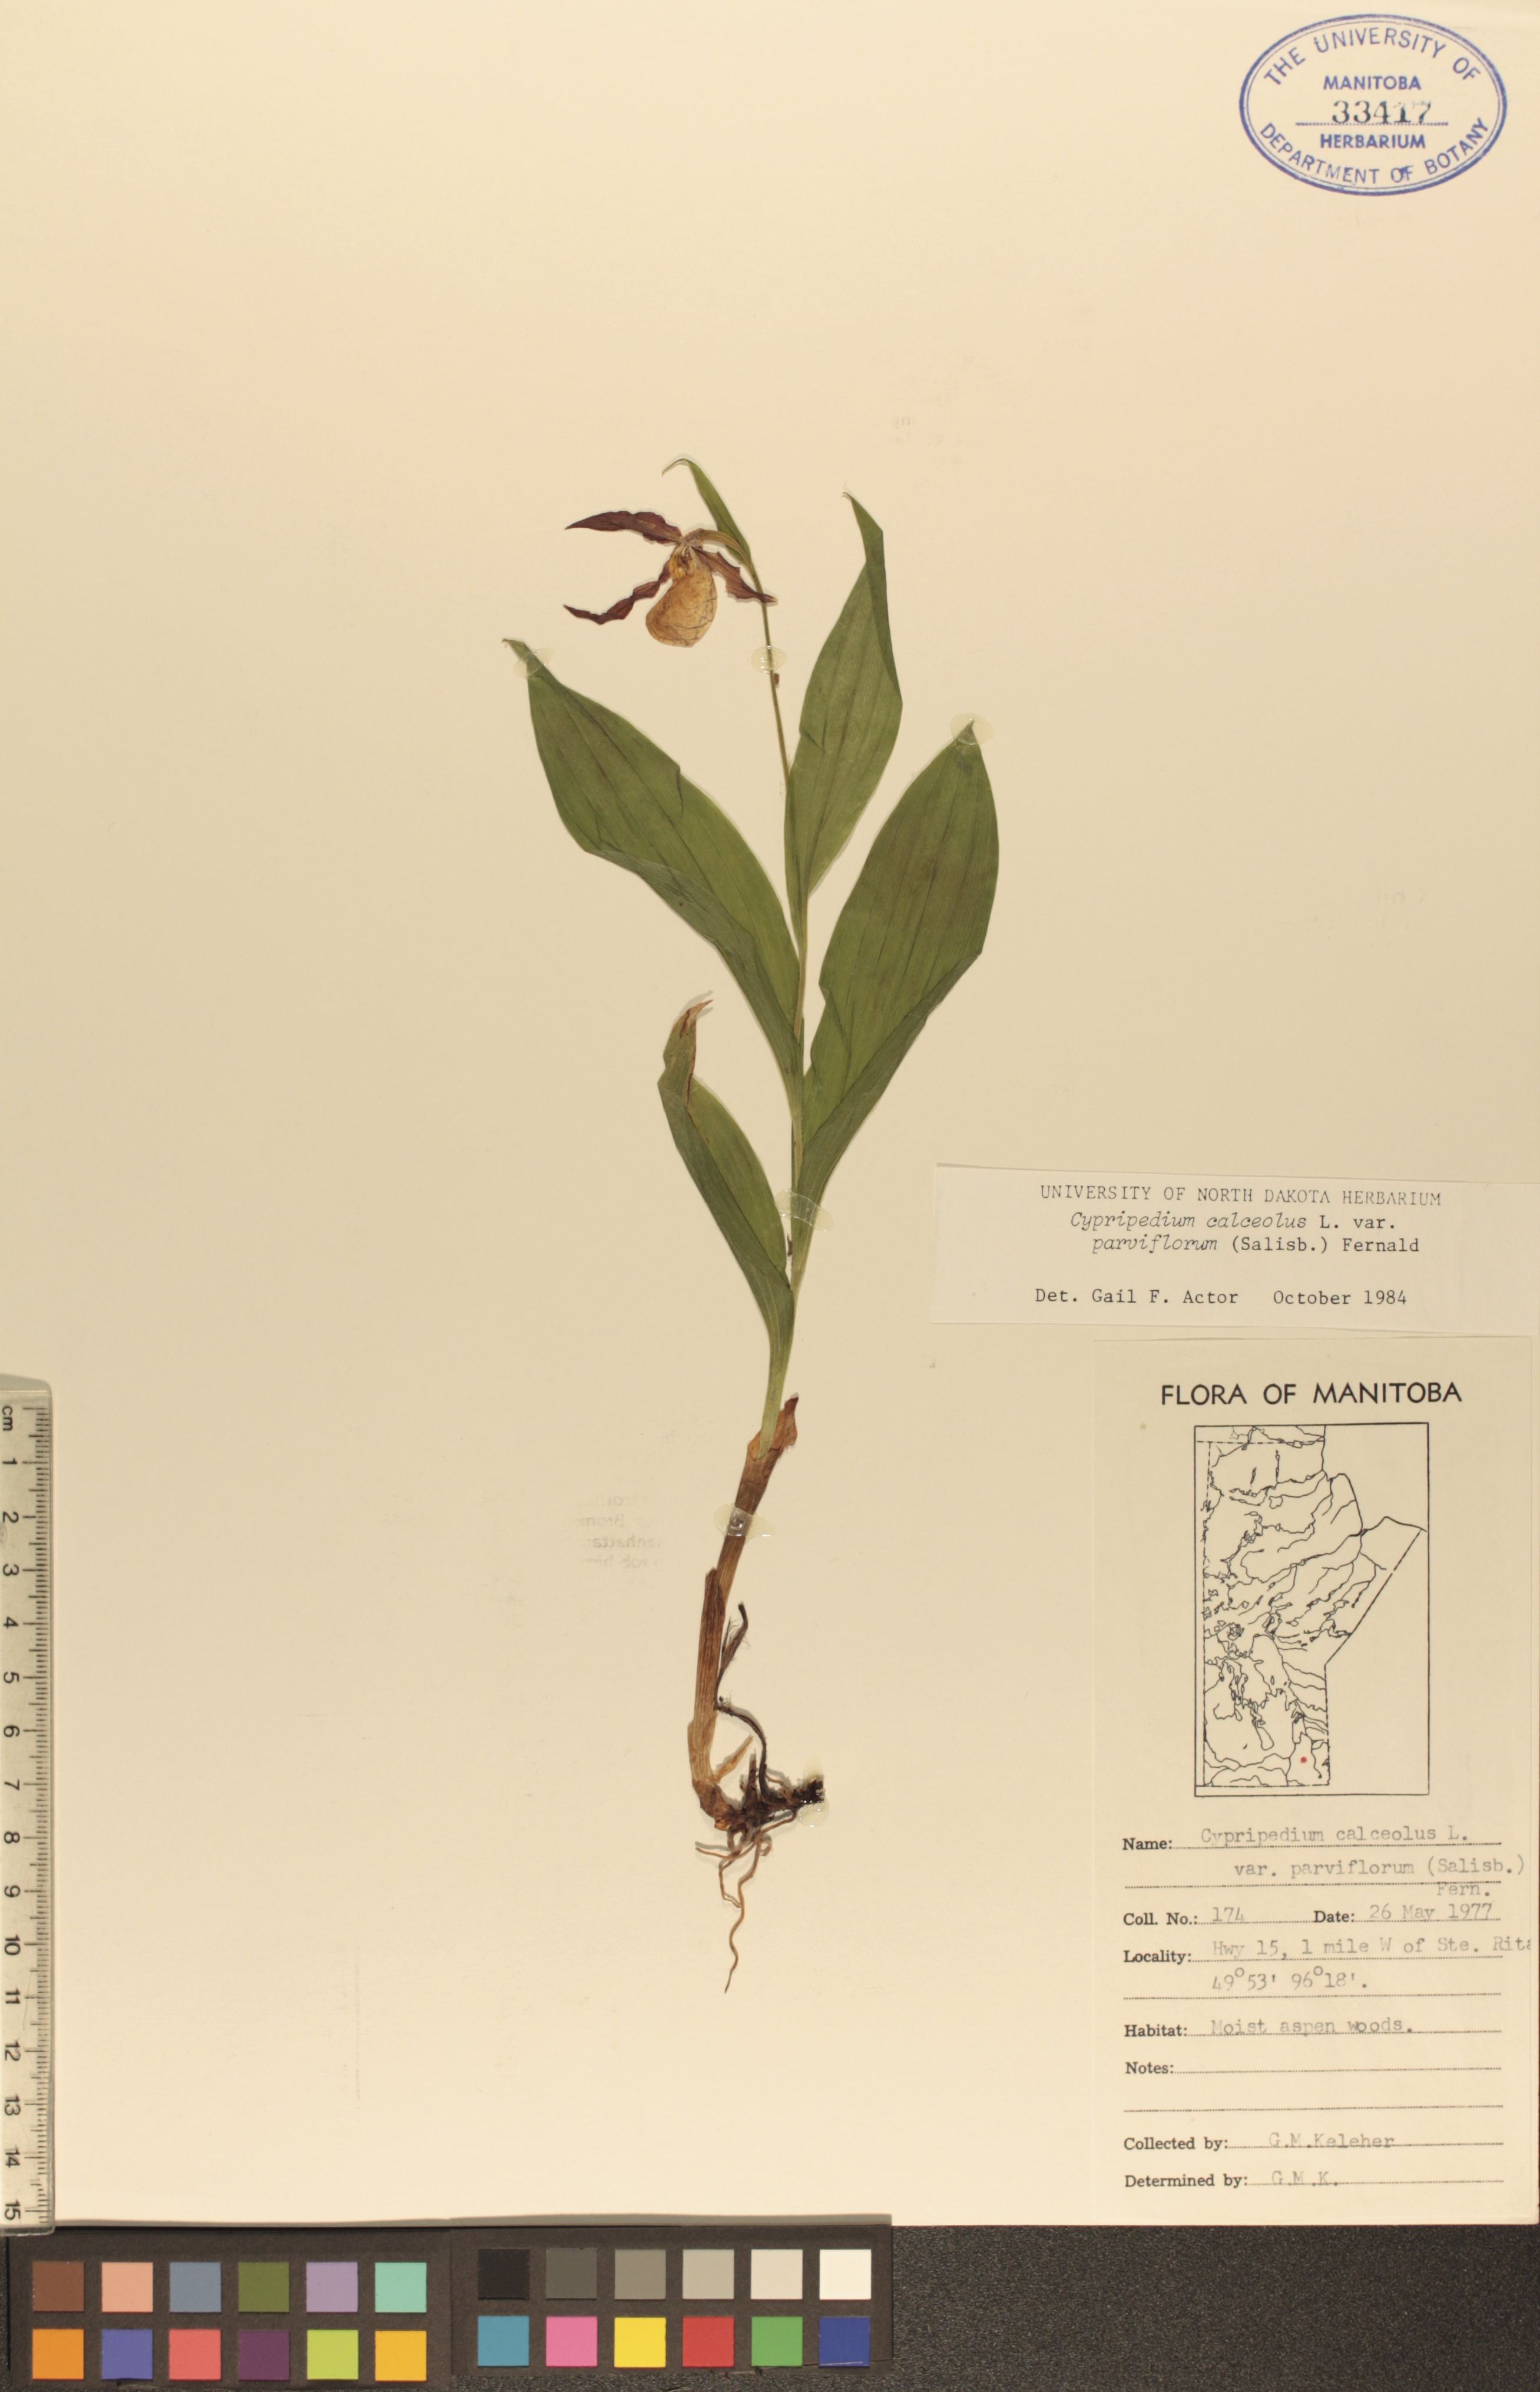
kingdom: Plantae
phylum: Tracheophyta
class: Liliopsida
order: Asparagales
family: Orchidaceae
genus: Cypripedium
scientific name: Cypripedium parviflorum
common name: American yellow lady's-slipper
